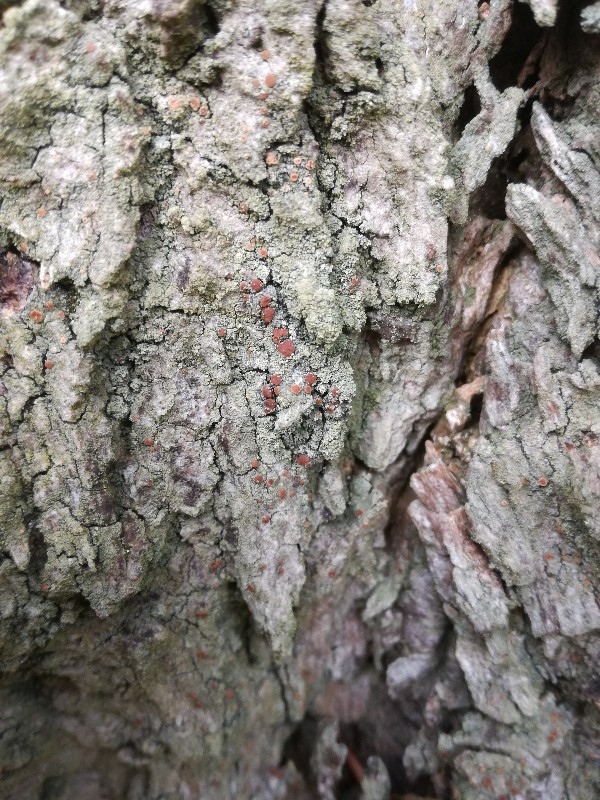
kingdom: Fungi
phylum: Ascomycota
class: Lecanoromycetes
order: Lecanorales
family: Ramalinaceae
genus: Bacidia
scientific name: Bacidia rubella
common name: rødbrun tensporelav
